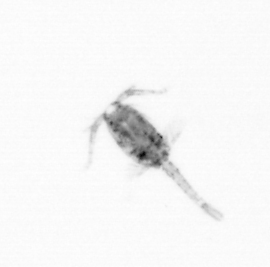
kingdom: Animalia
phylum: Arthropoda
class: Copepoda
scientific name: Copepoda
